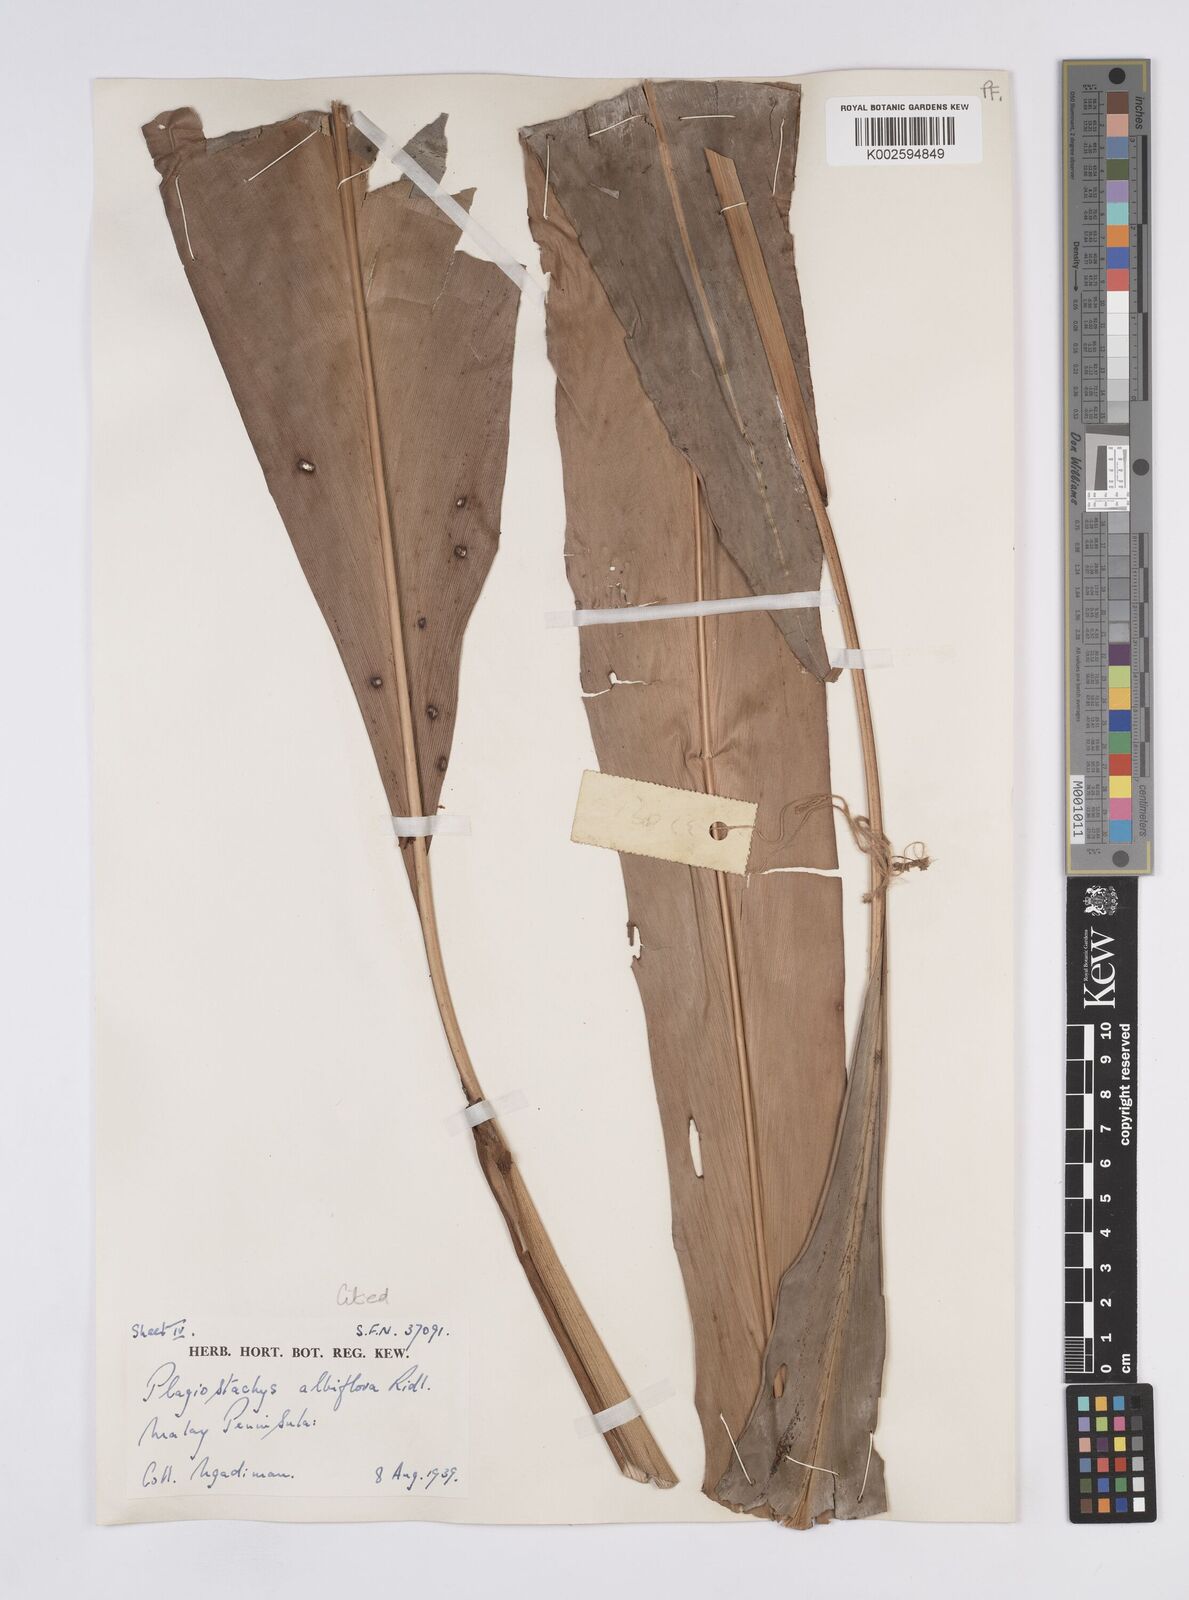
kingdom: Plantae
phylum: Tracheophyta
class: Liliopsida
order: Zingiberales
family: Zingiberaceae
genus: Plagiostachys
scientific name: Plagiostachys albiflora
